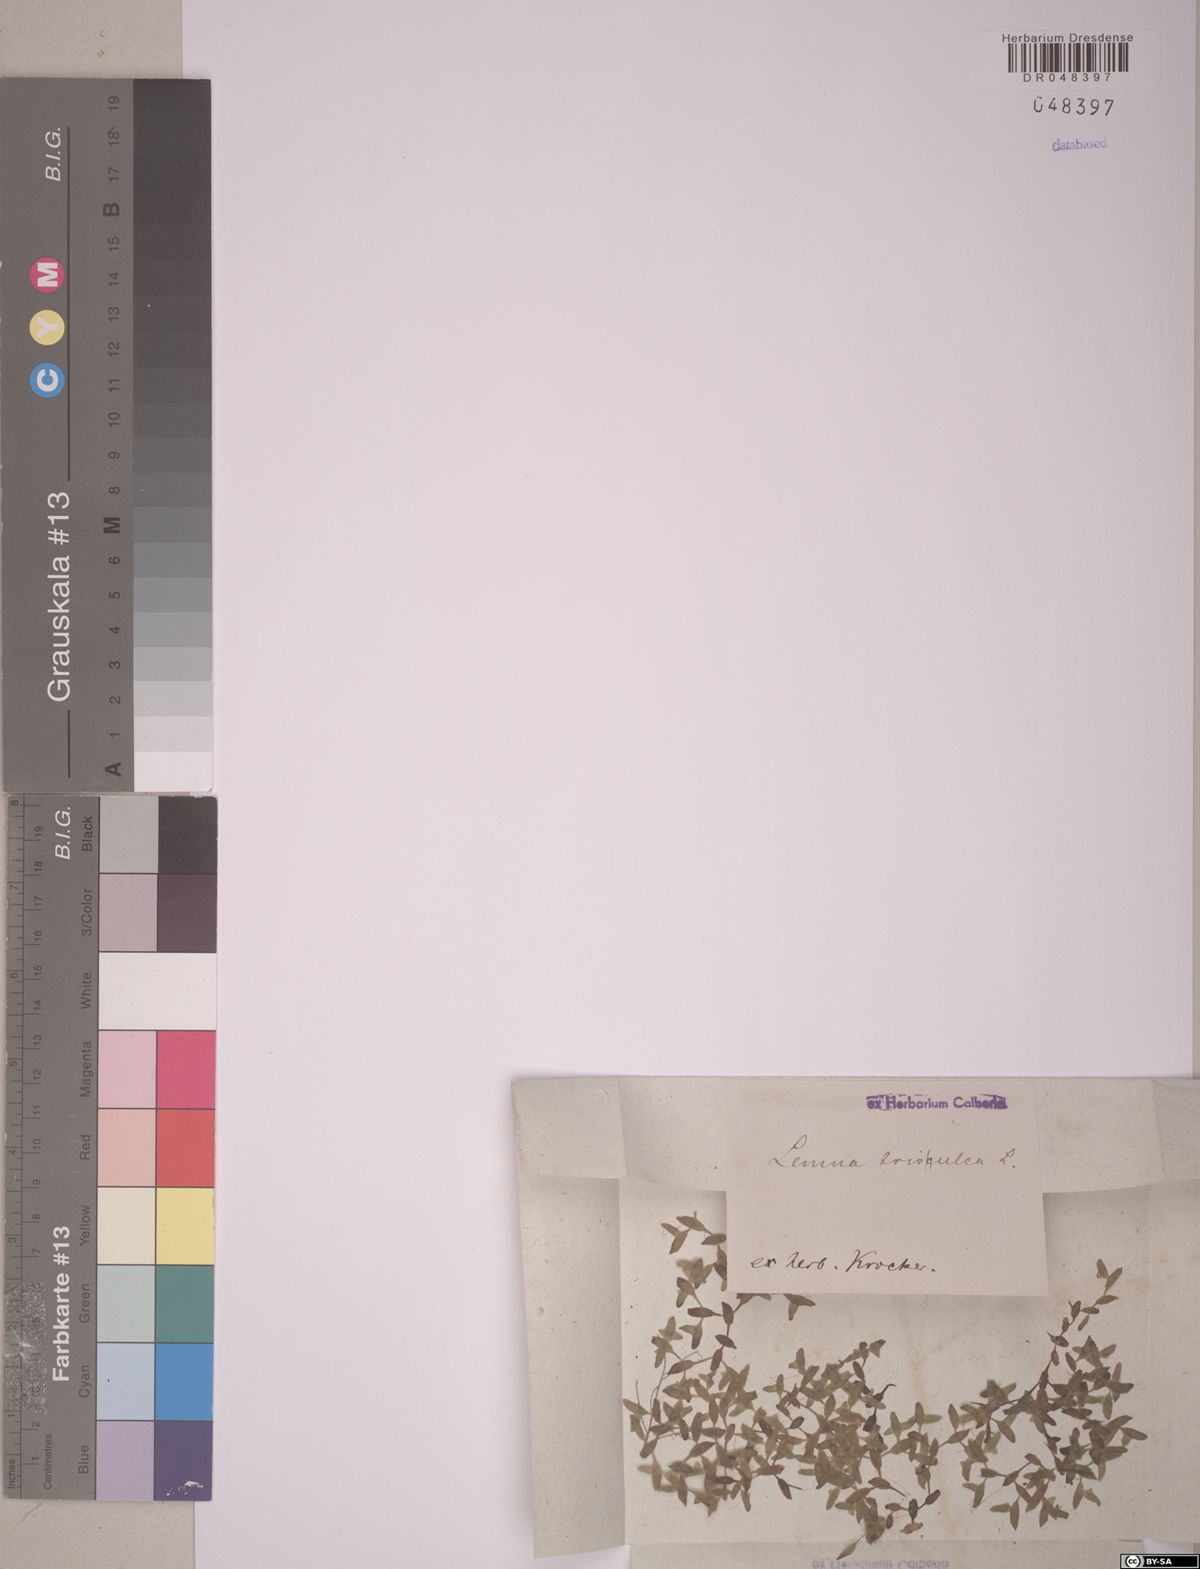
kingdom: Plantae
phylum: Tracheophyta
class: Liliopsida
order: Alismatales
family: Araceae
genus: Lemna
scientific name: Lemna trisulca
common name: Ivy-leaved duckweed
